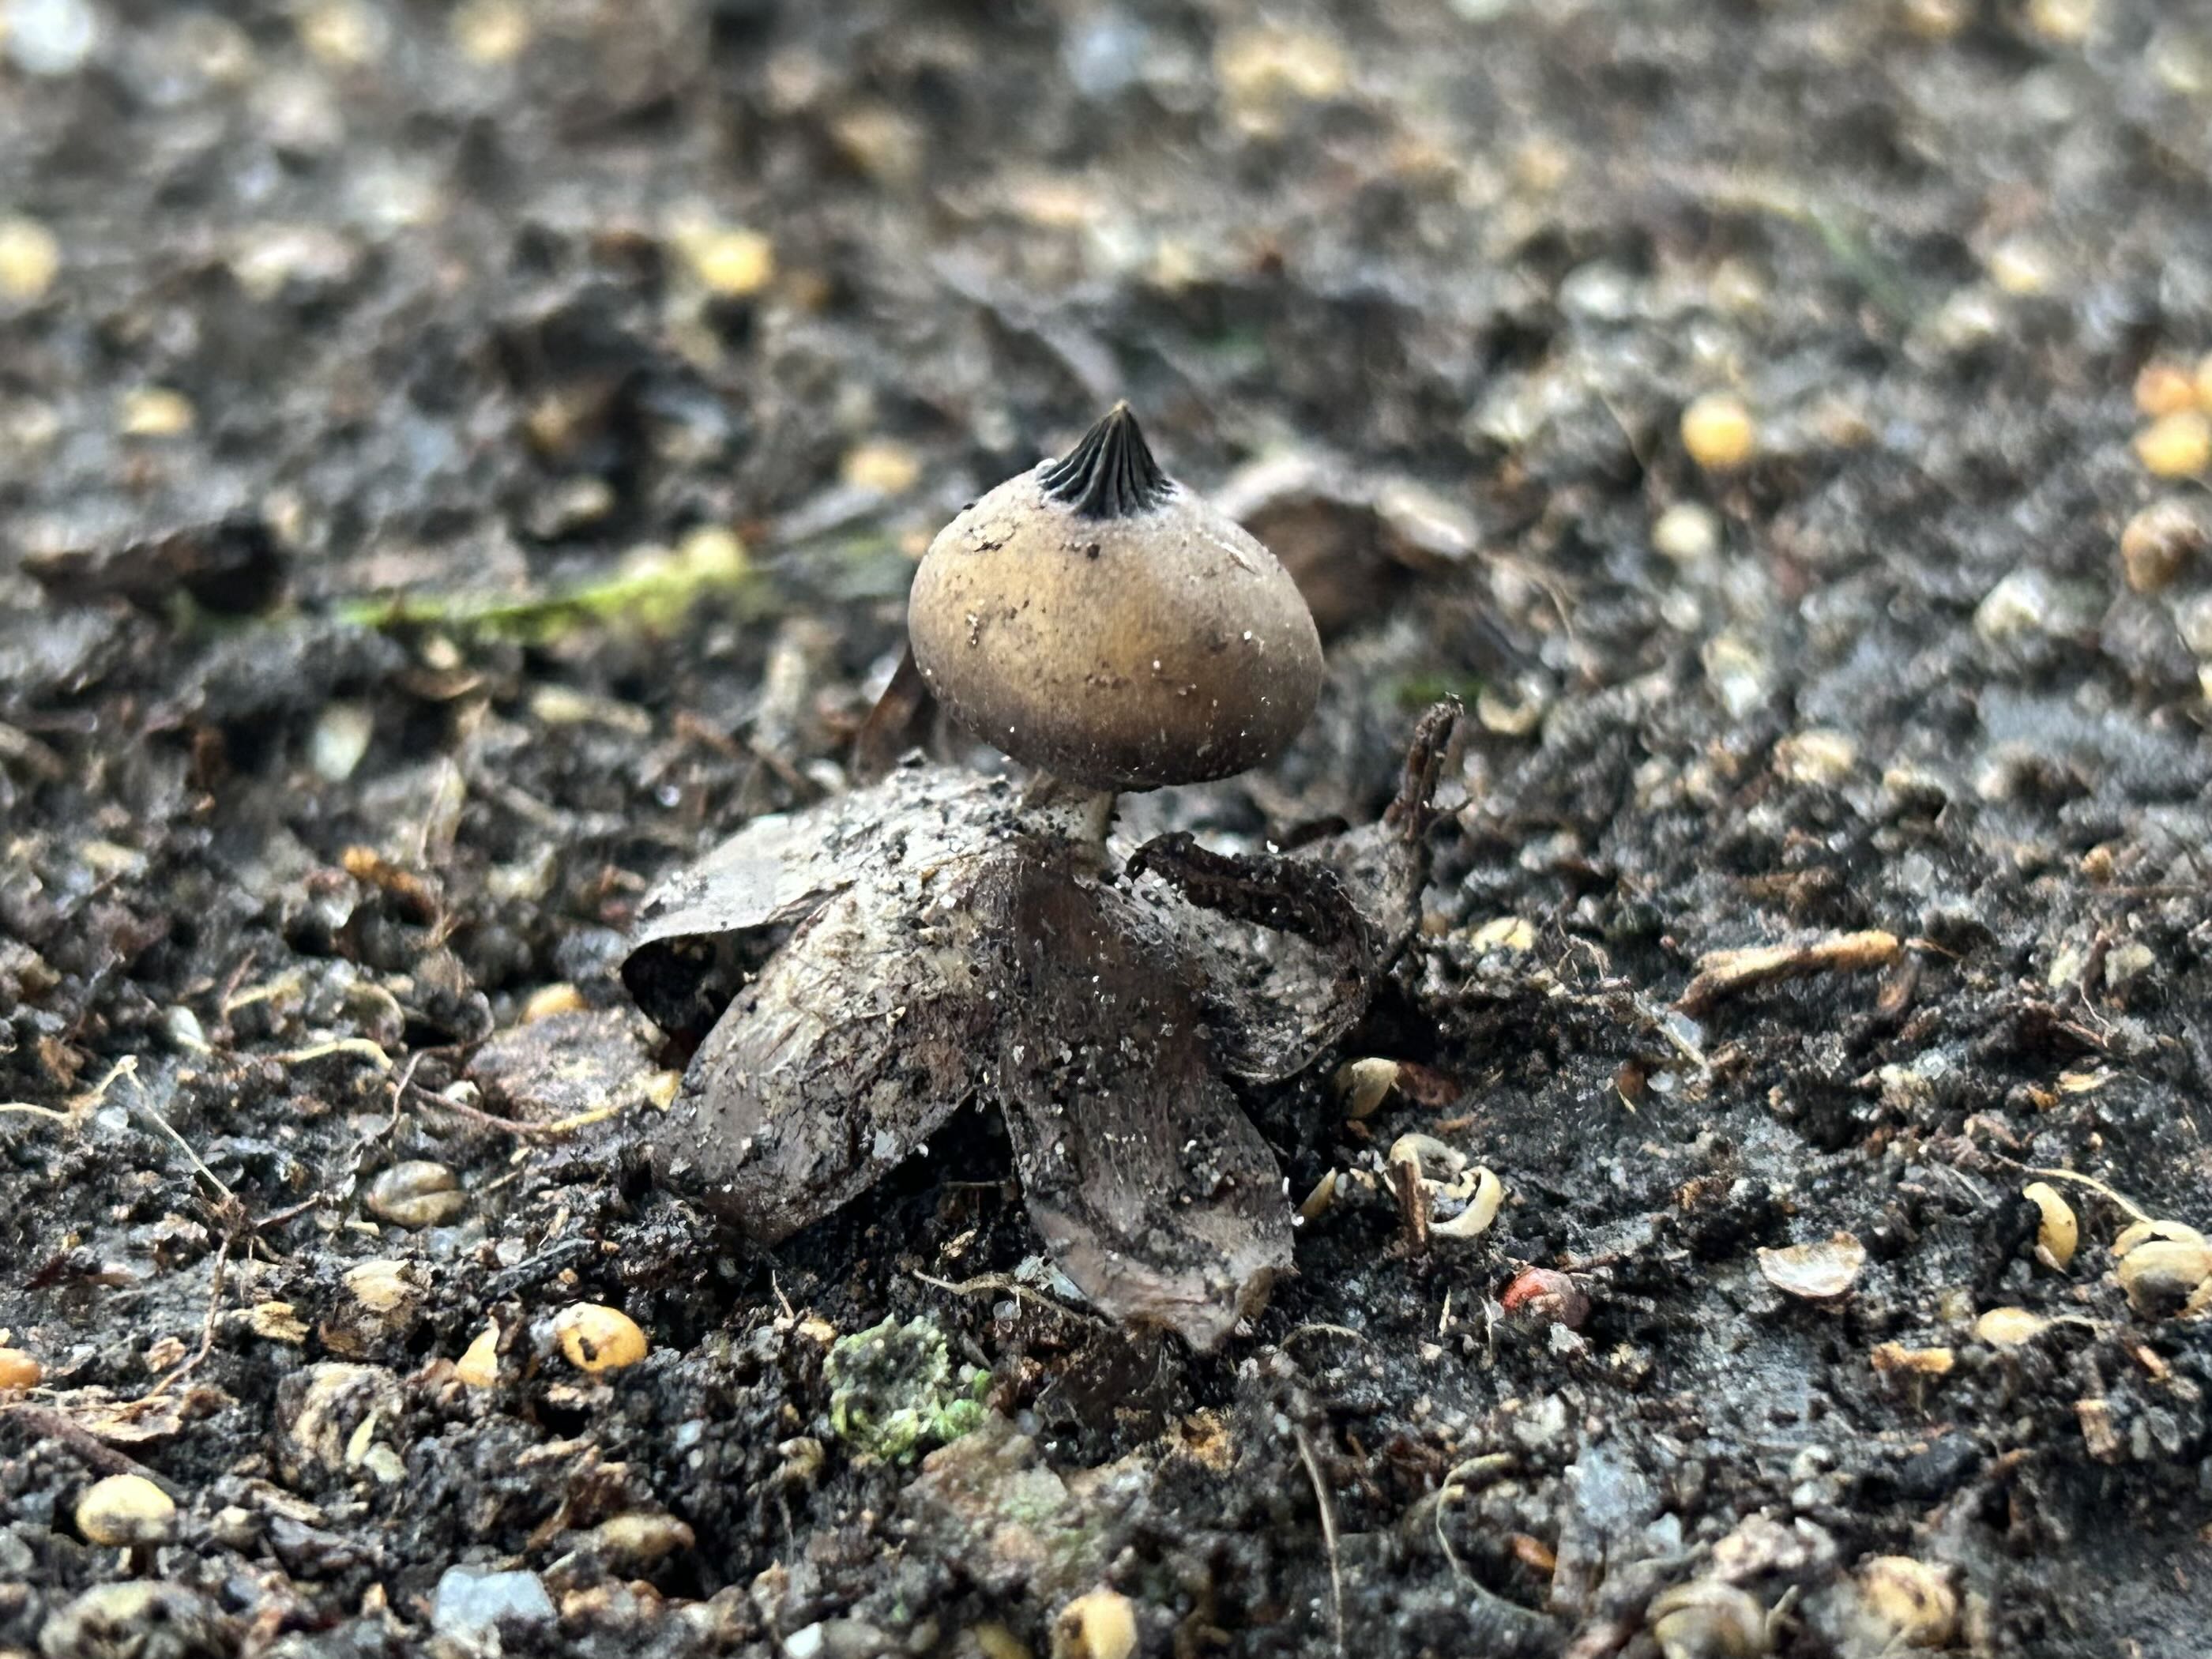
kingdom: Fungi
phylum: Basidiomycota
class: Agaricomycetes
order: Geastrales
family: Geastraceae
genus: Geastrum
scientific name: Geastrum striatum
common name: krave-stjernebold
